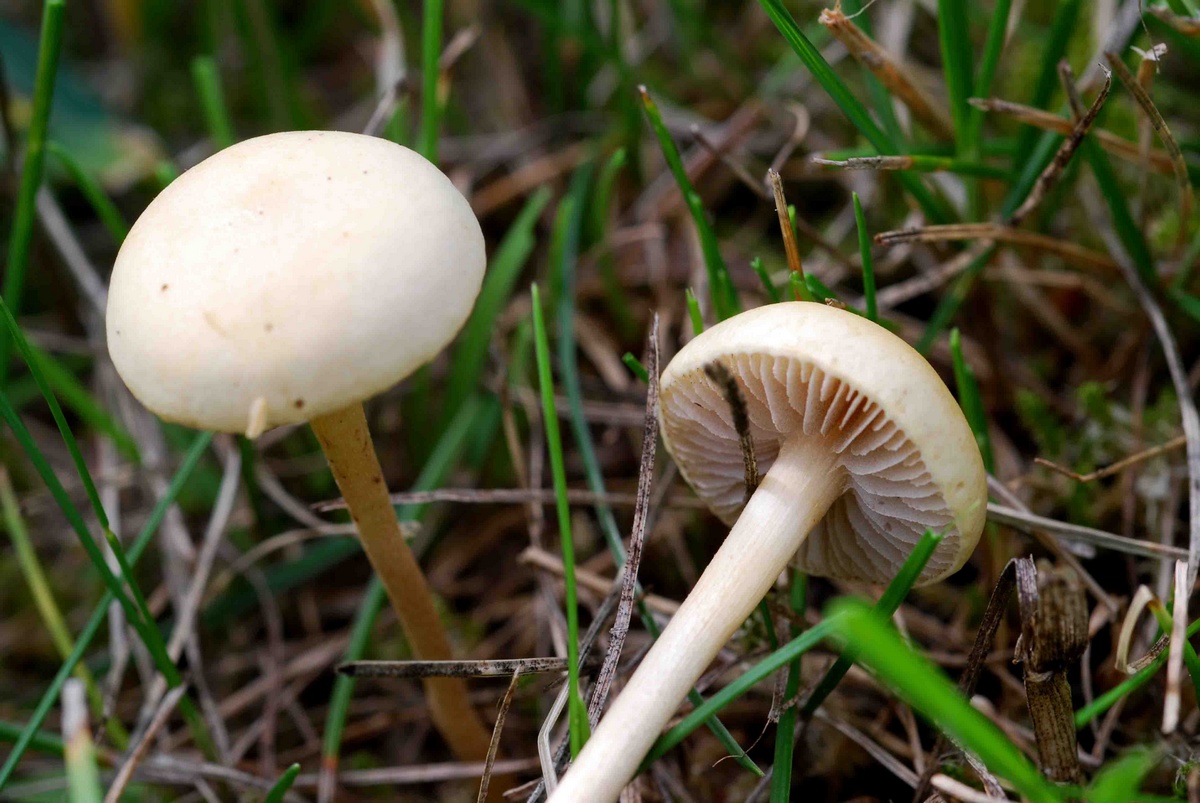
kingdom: Fungi
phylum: Basidiomycota
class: Agaricomycetes
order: Agaricales
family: Strophariaceae
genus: Agrocybe
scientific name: Agrocybe pediades
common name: almindelig agerhat
